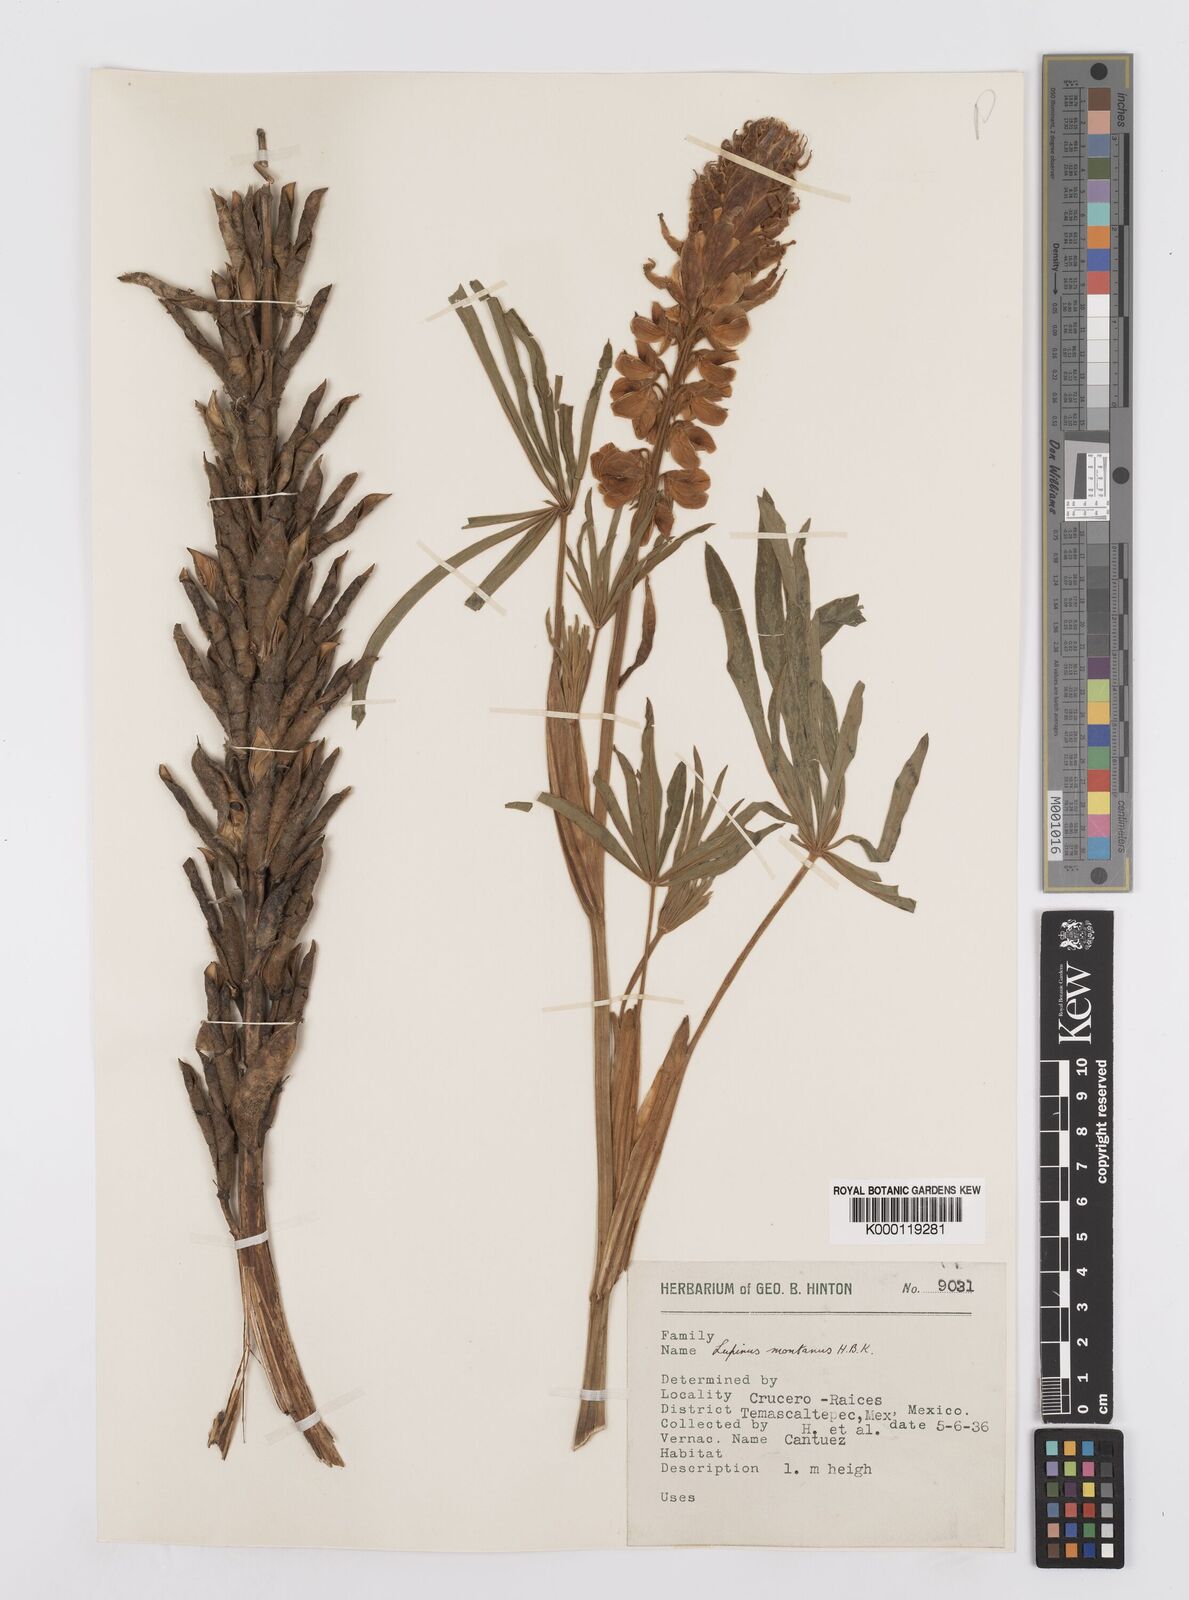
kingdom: Plantae
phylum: Tracheophyta
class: Magnoliopsida
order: Fabales
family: Fabaceae
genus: Lupinus
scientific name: Lupinus montanus
